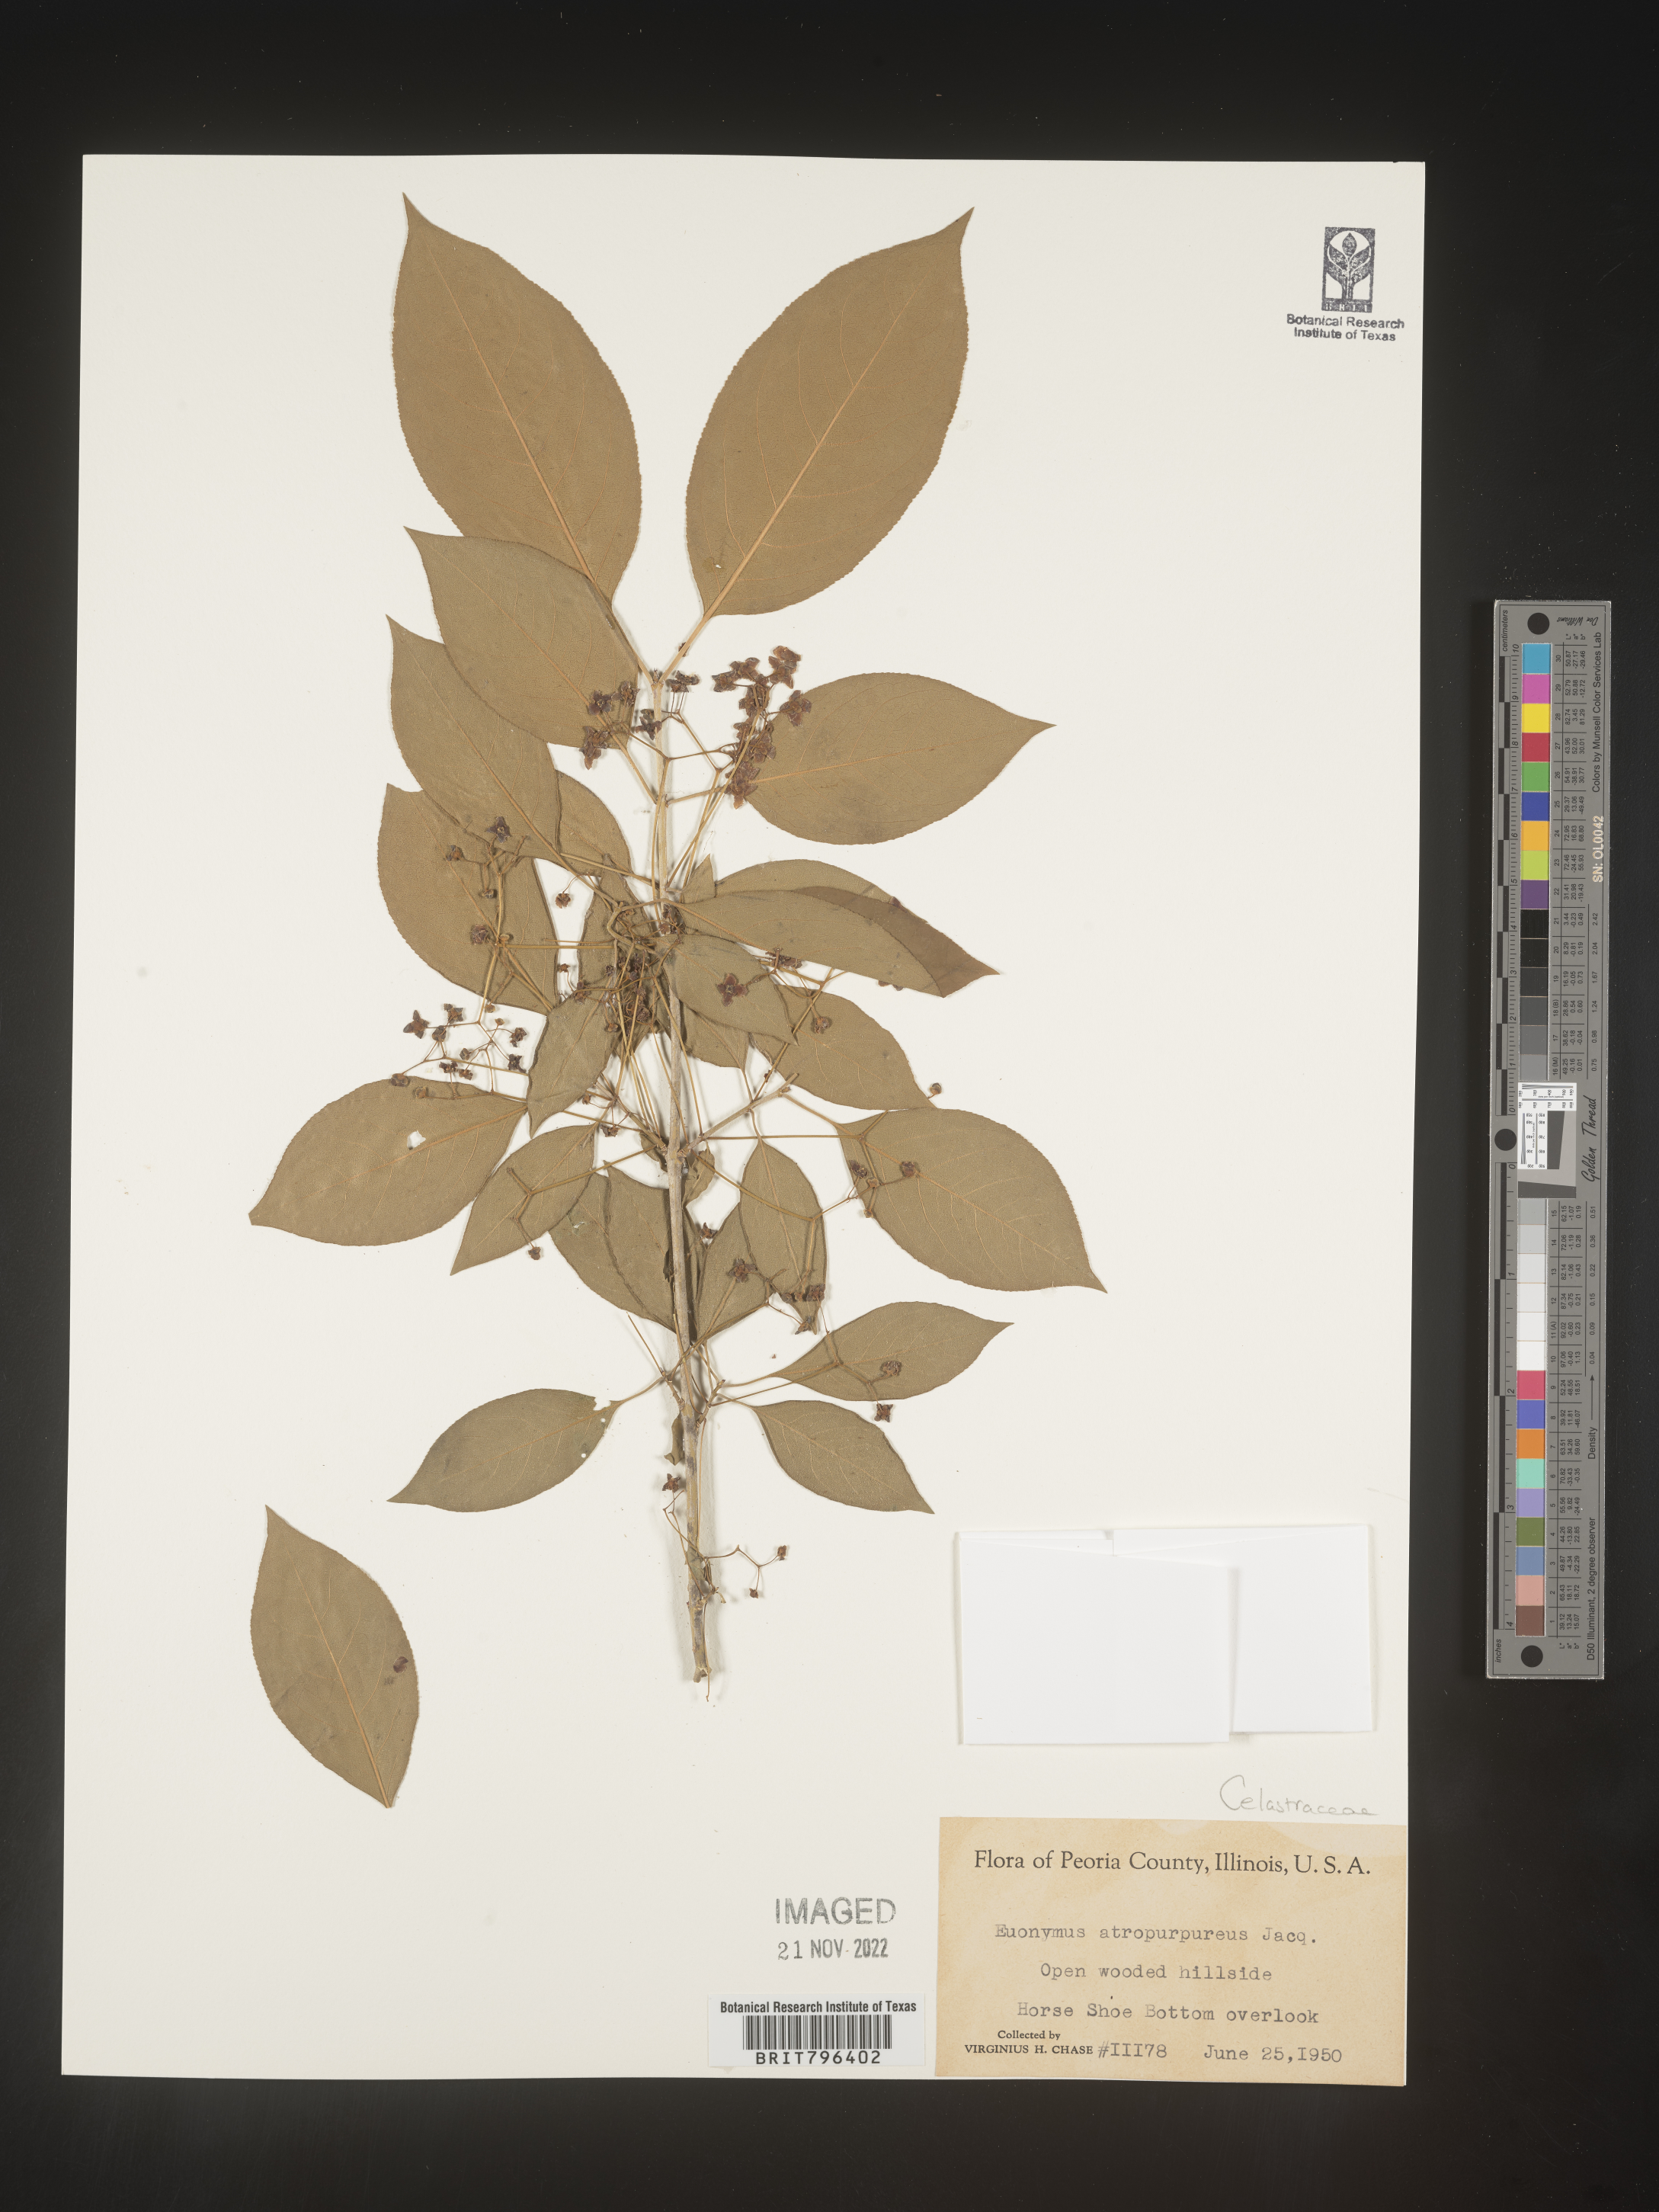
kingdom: Plantae
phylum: Tracheophyta
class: Magnoliopsida
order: Celastrales
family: Celastraceae
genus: Euonymus
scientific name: Euonymus atropurpureus
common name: Eastern wahoo
